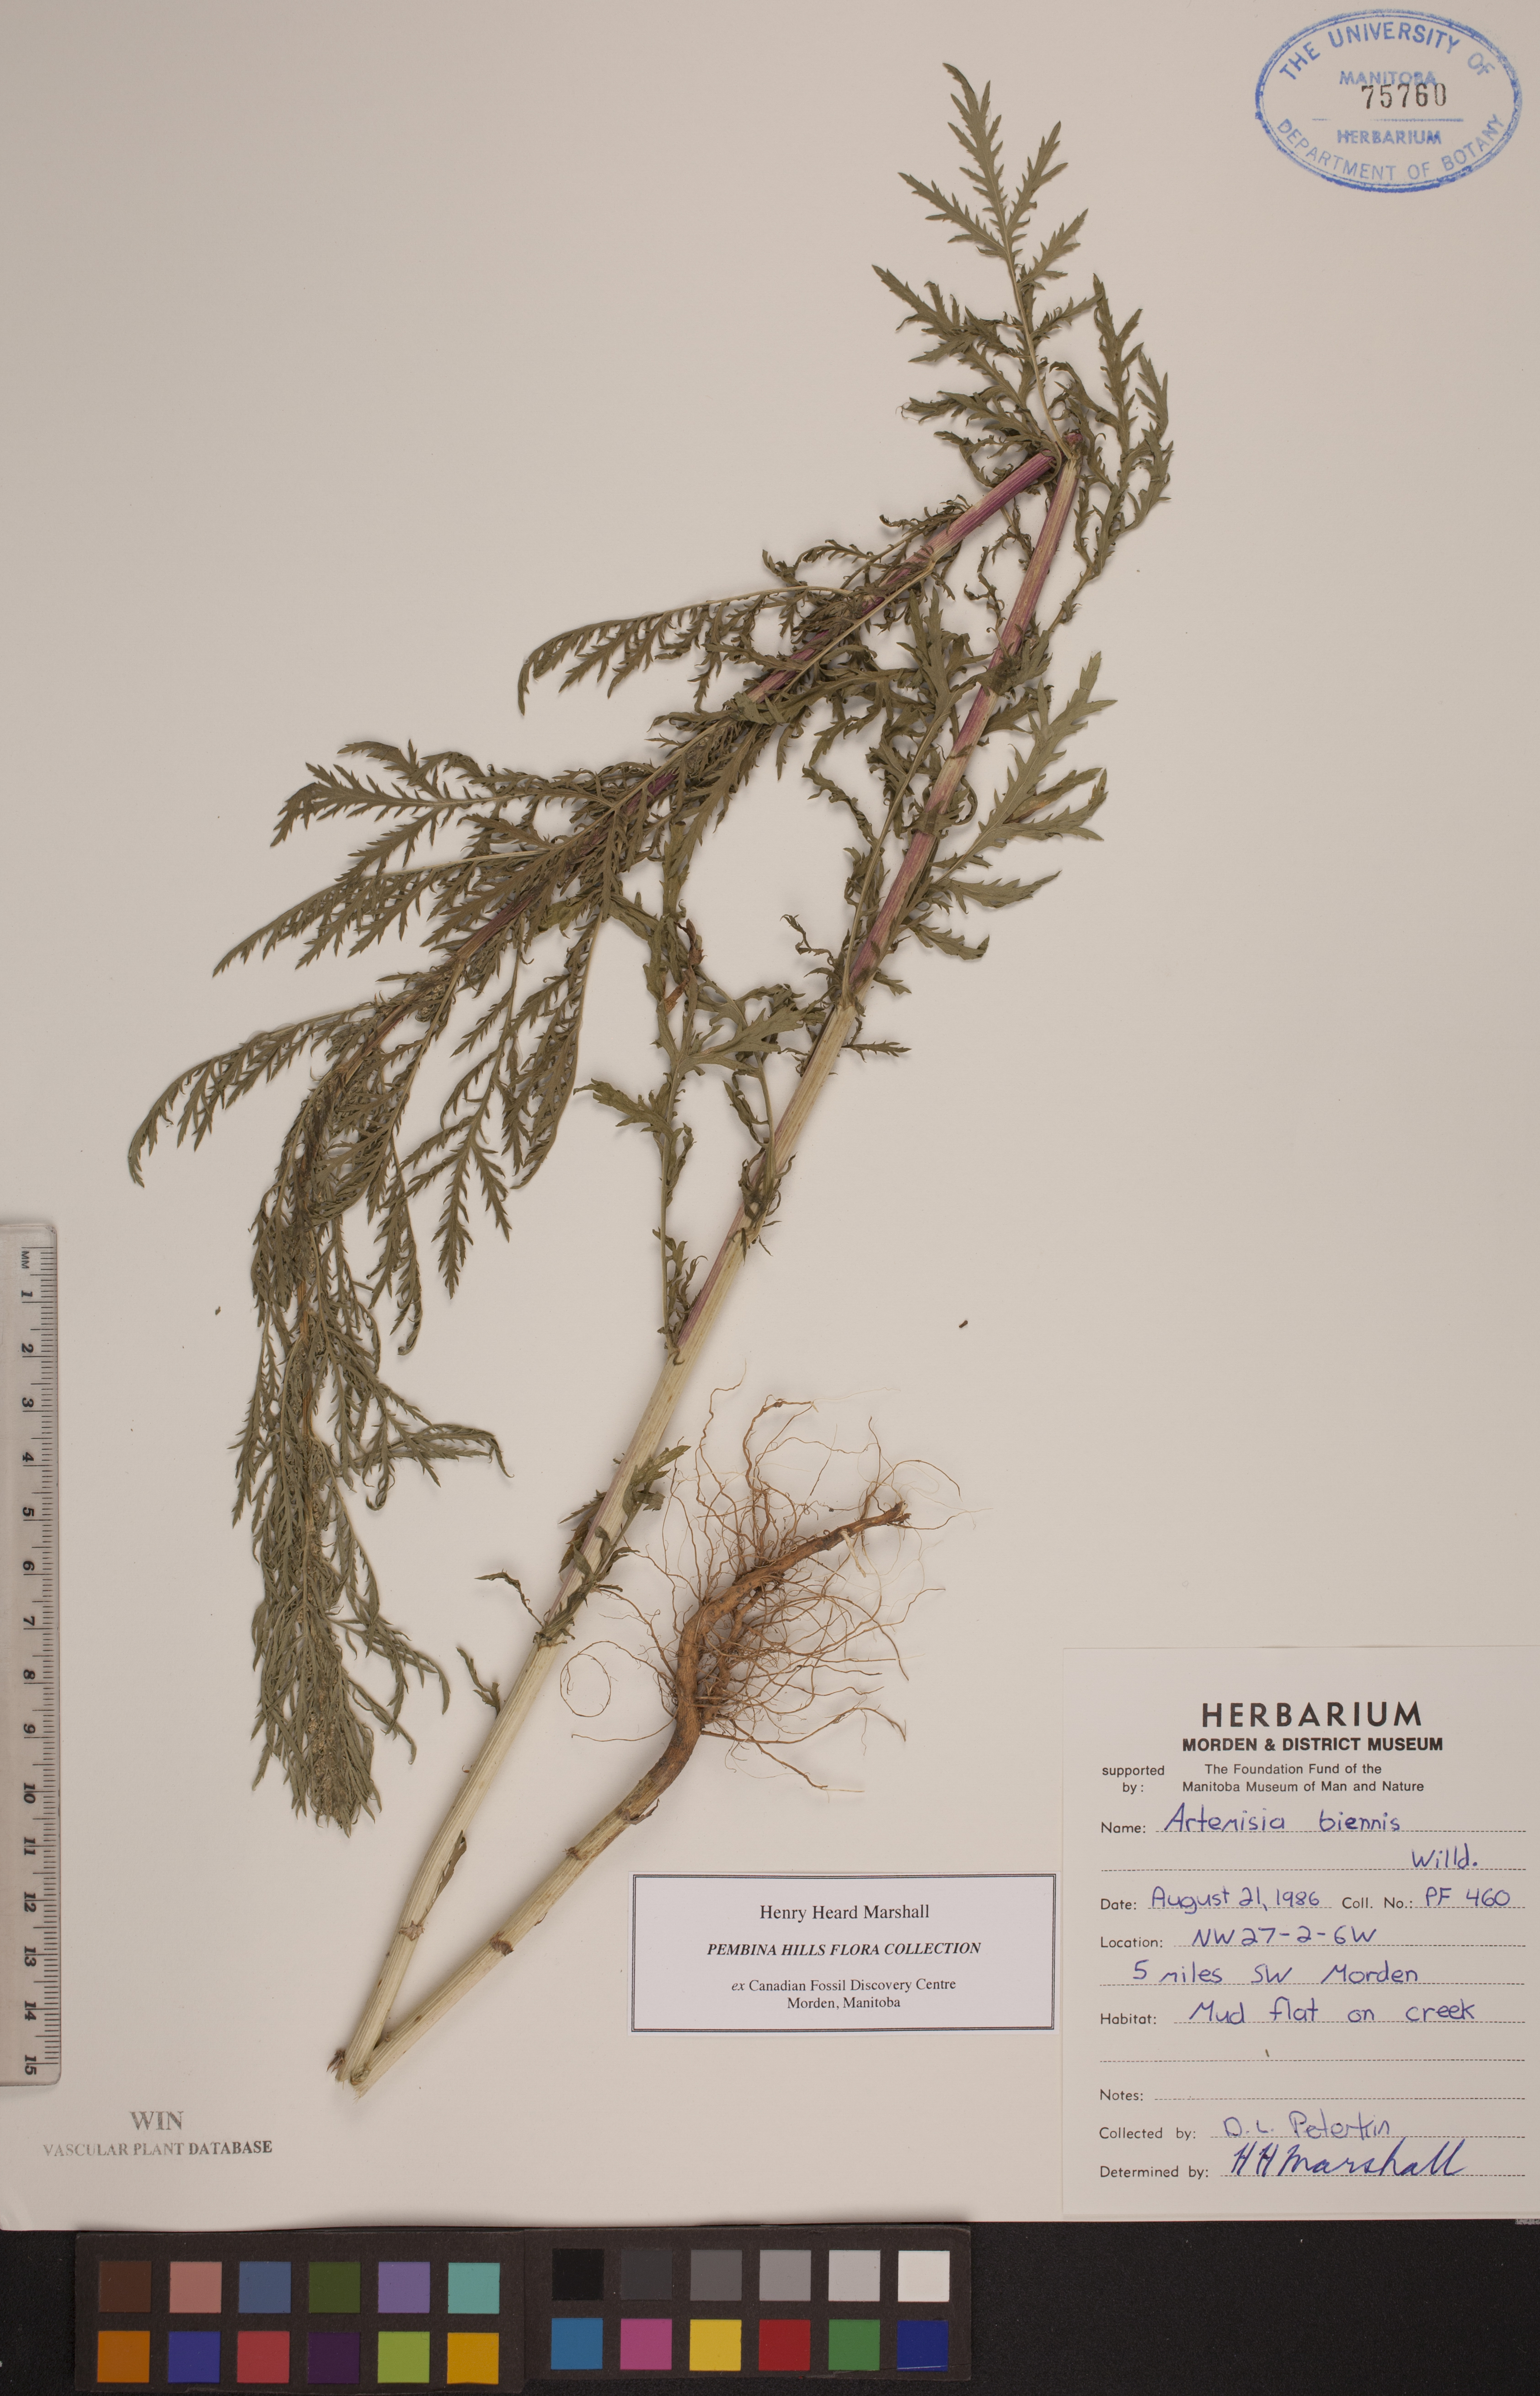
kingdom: Plantae
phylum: Tracheophyta
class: Magnoliopsida
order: Asterales
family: Asteraceae
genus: Artemisia
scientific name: Artemisia biennis
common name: Biennial wormwood
